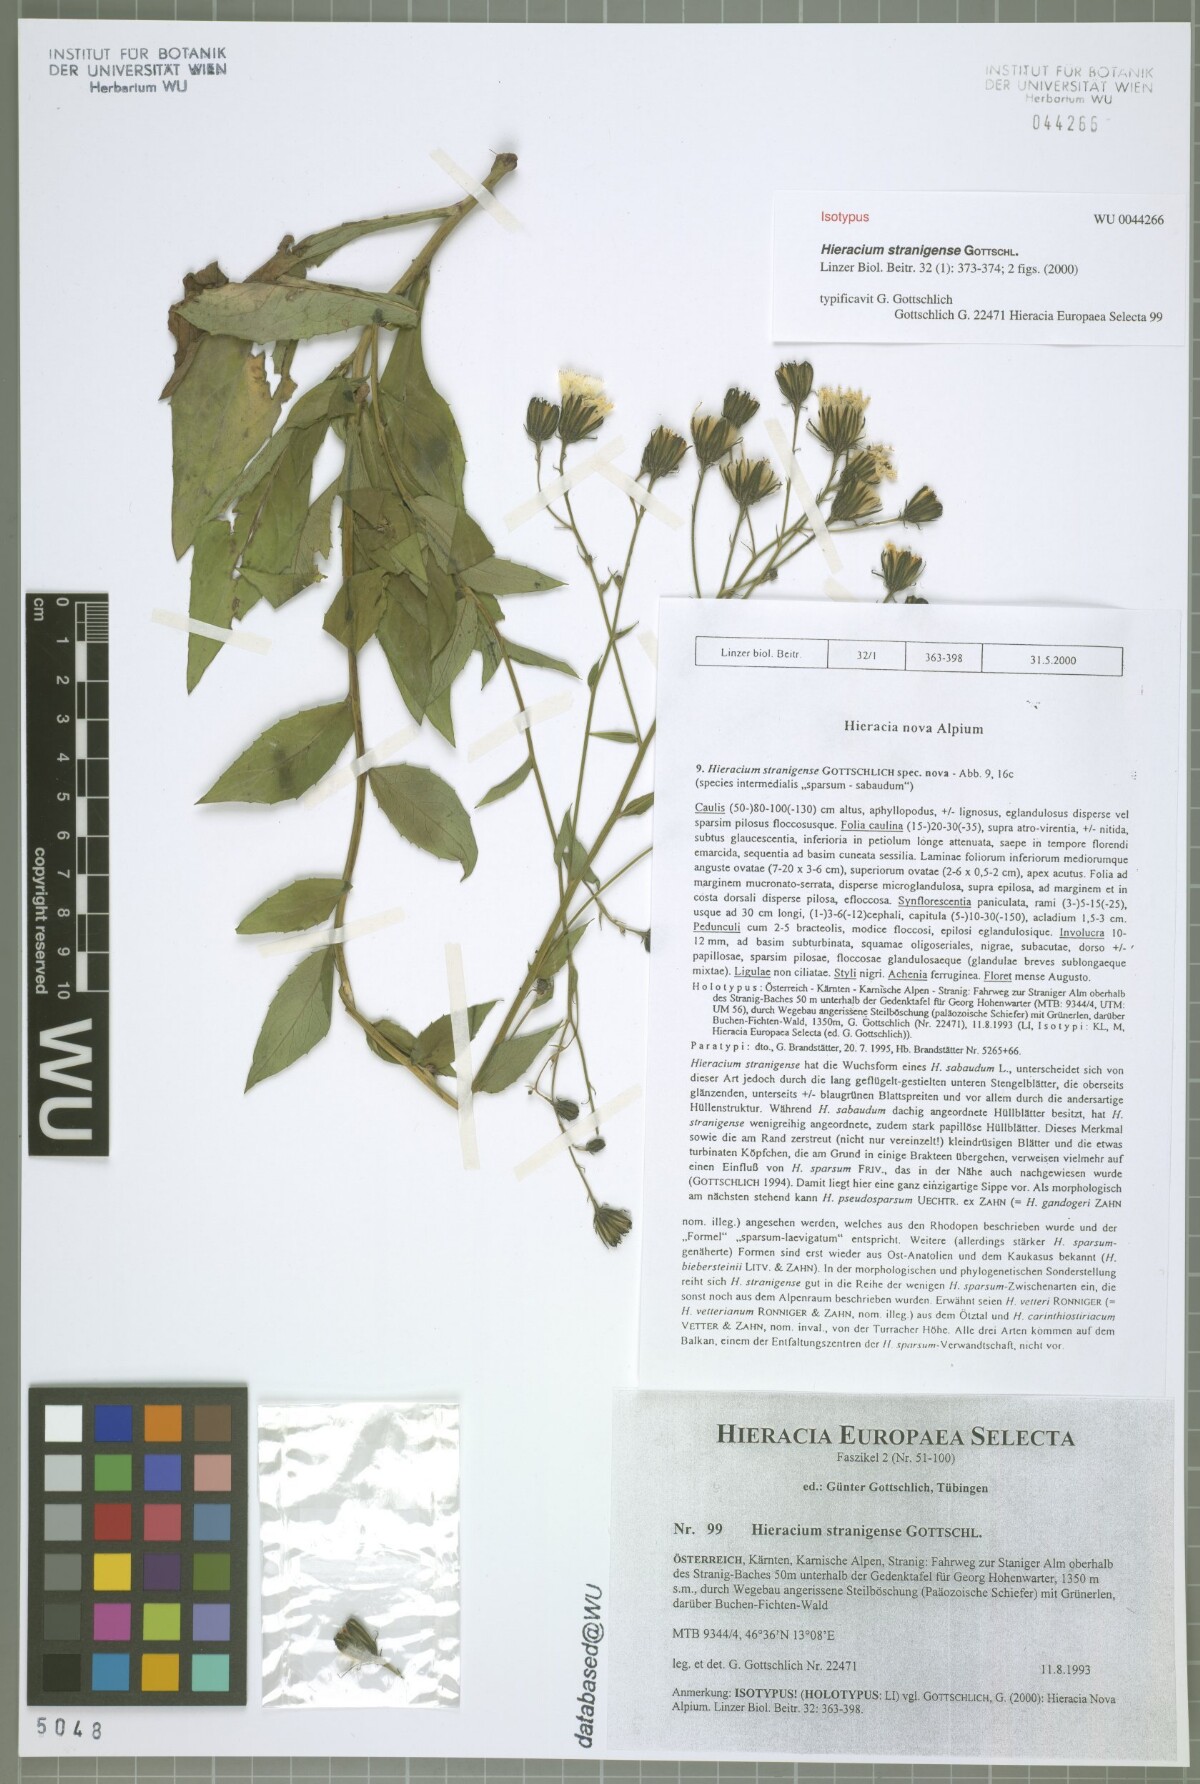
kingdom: Plantae
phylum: Tracheophyta
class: Magnoliopsida
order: Asterales
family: Asteraceae
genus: Hieracium
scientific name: Hieracium stranigense
